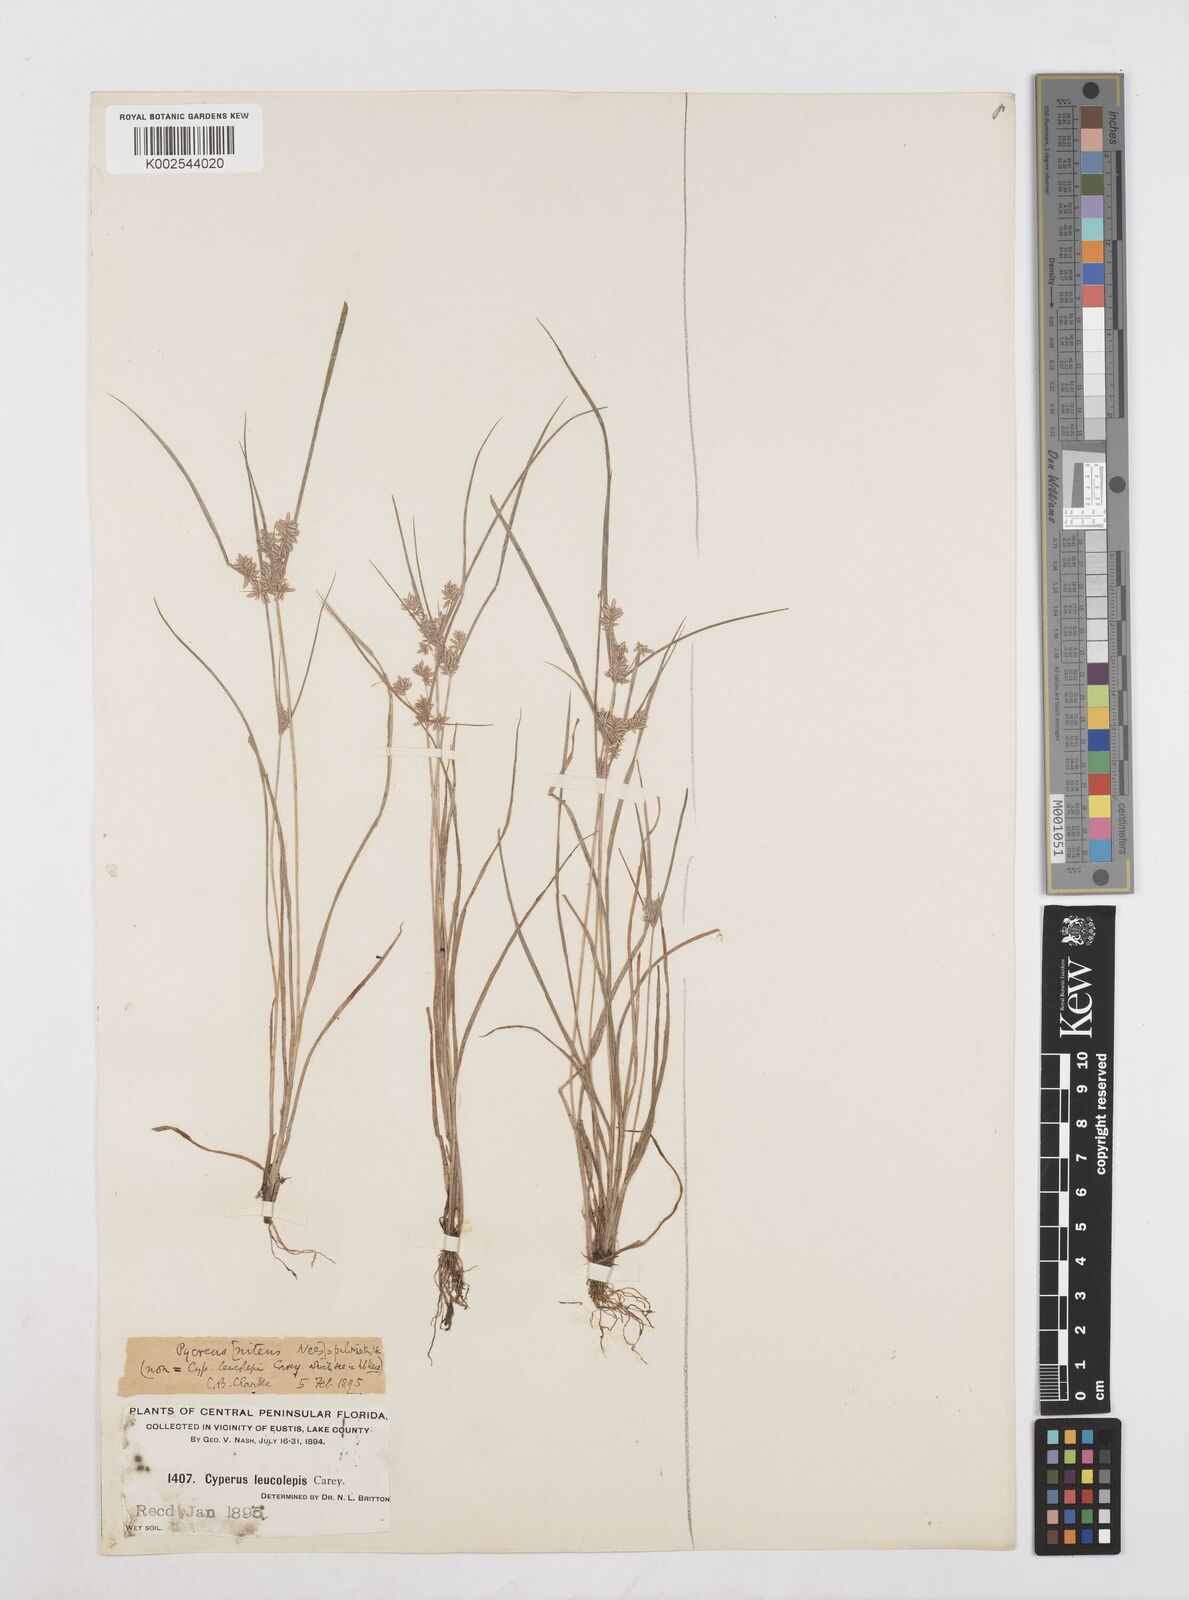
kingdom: Plantae
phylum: Tracheophyta
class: Liliopsida
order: Poales
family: Cyperaceae
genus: Cyperus
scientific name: Cyperus pumilus
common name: Low flatsedge
